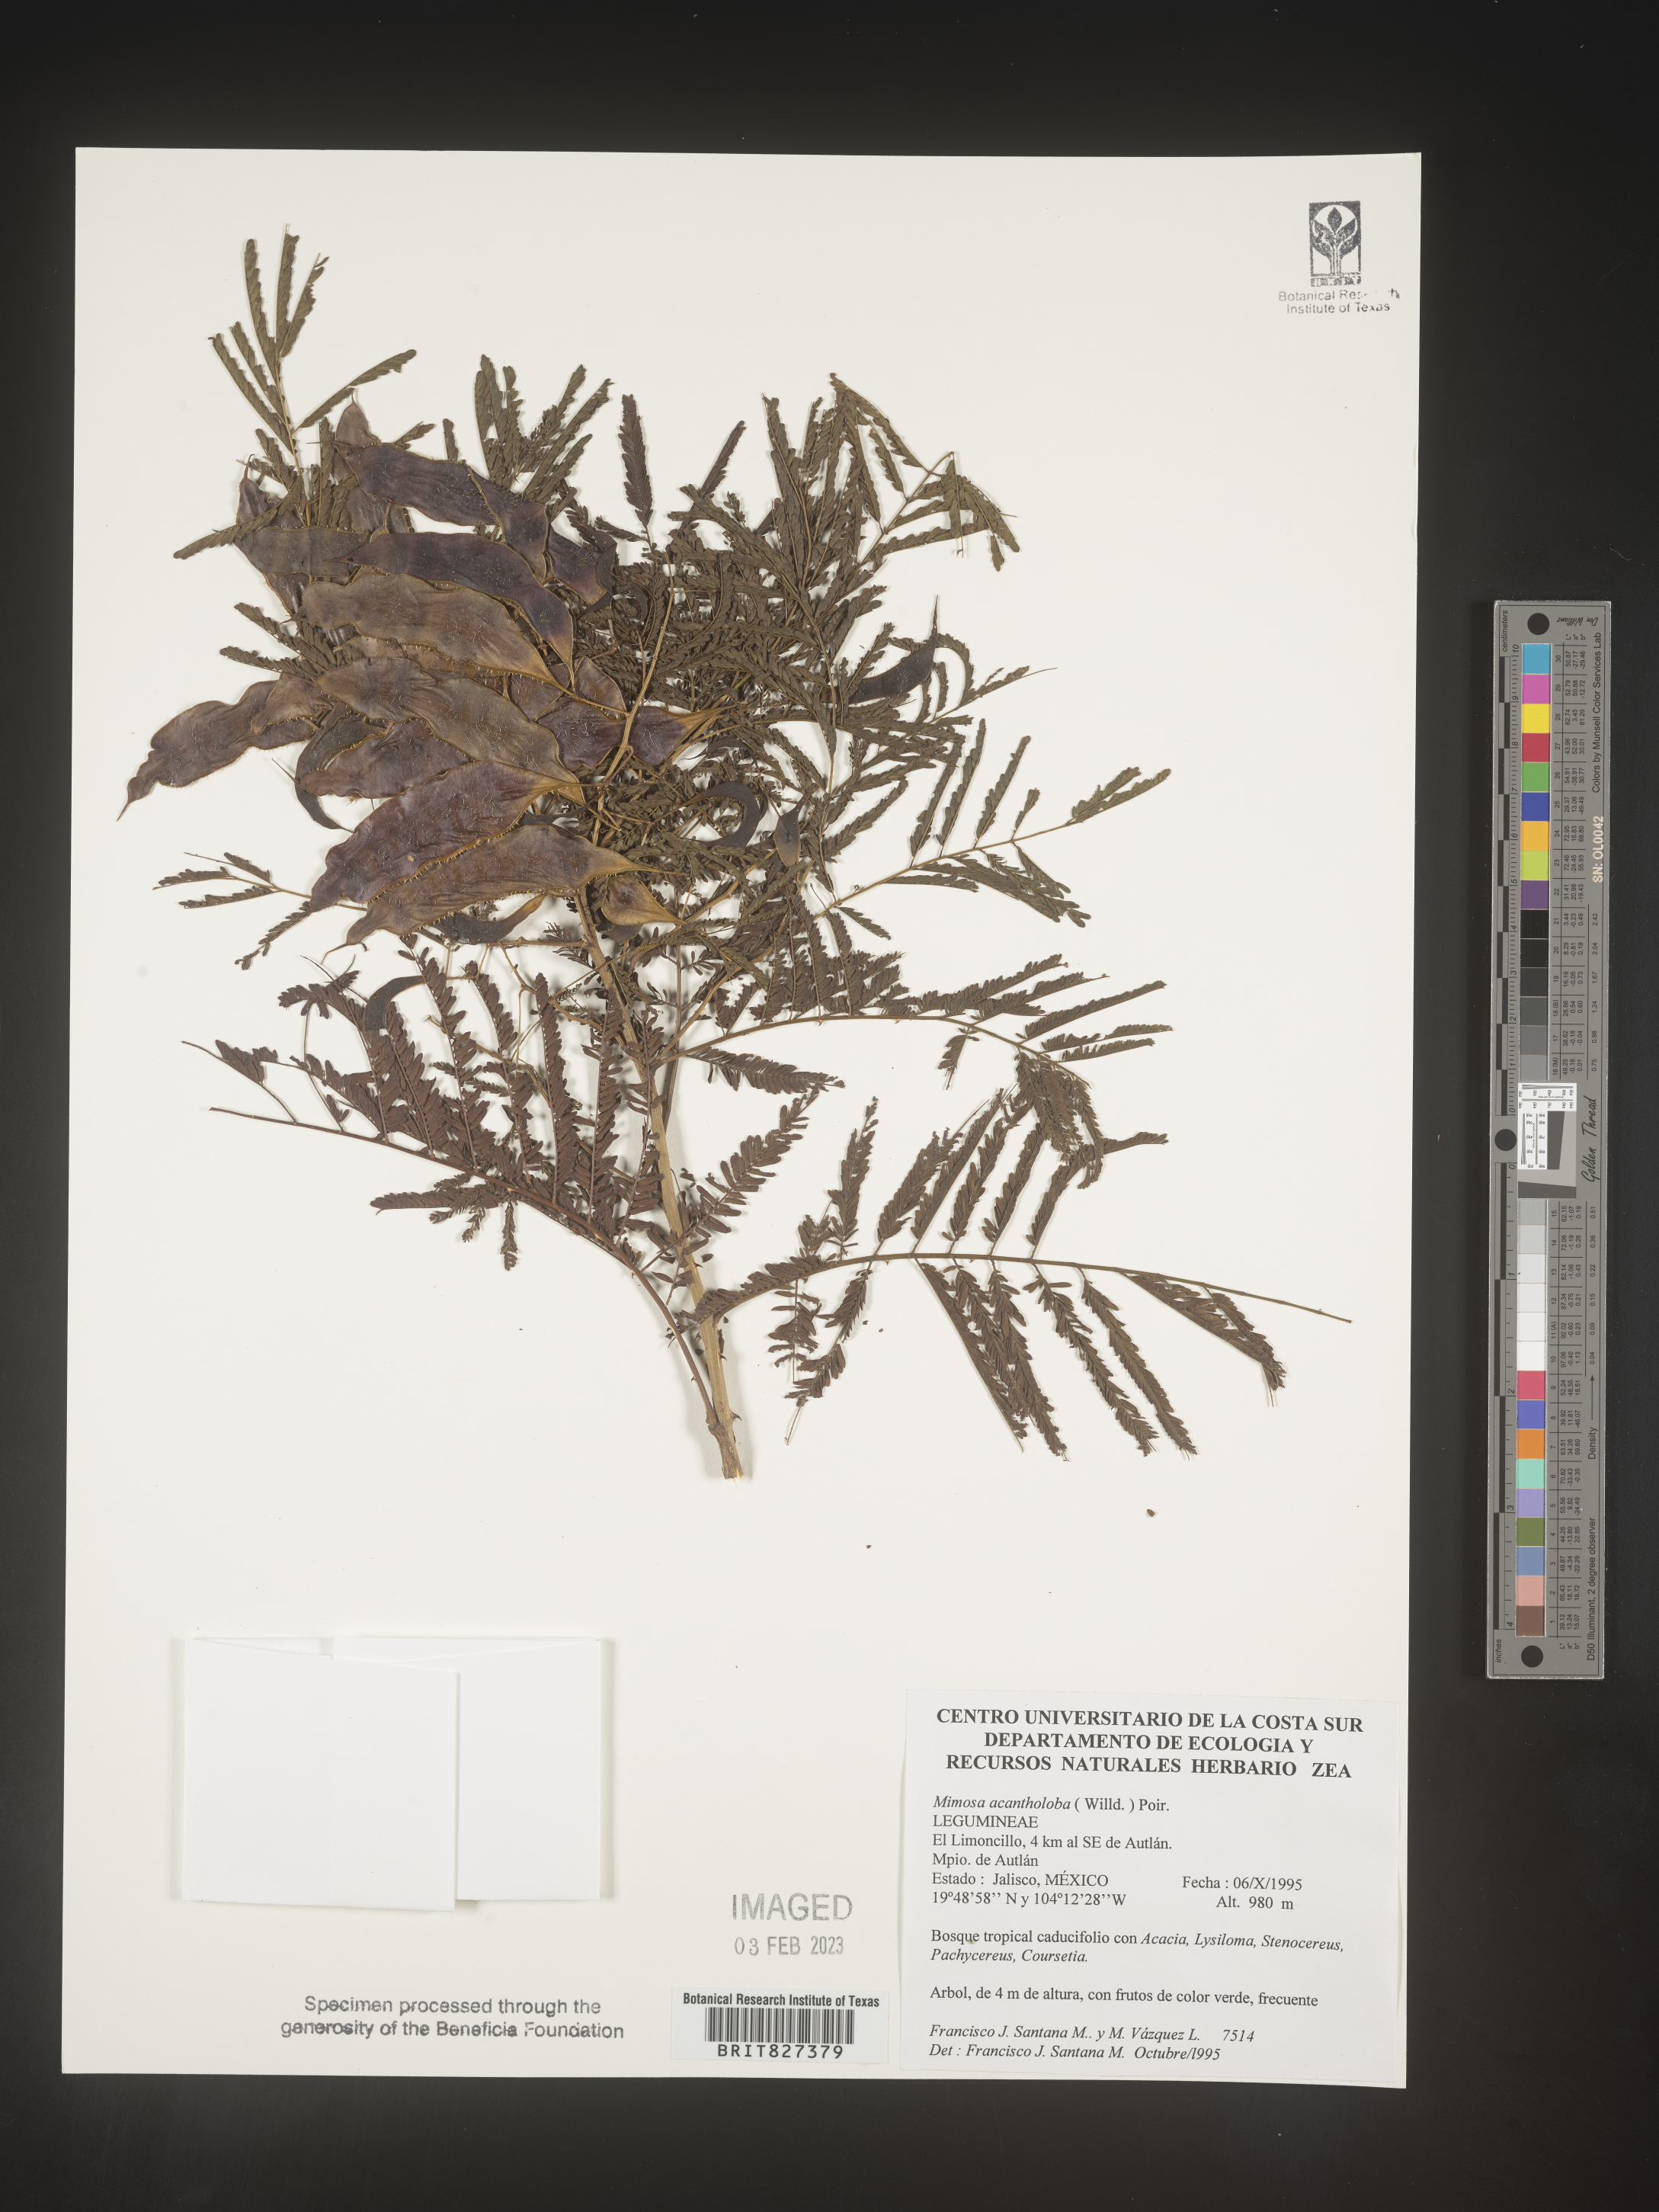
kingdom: Plantae
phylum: Tracheophyta
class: Magnoliopsida
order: Fabales
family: Fabaceae
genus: Mimosa
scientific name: Mimosa
